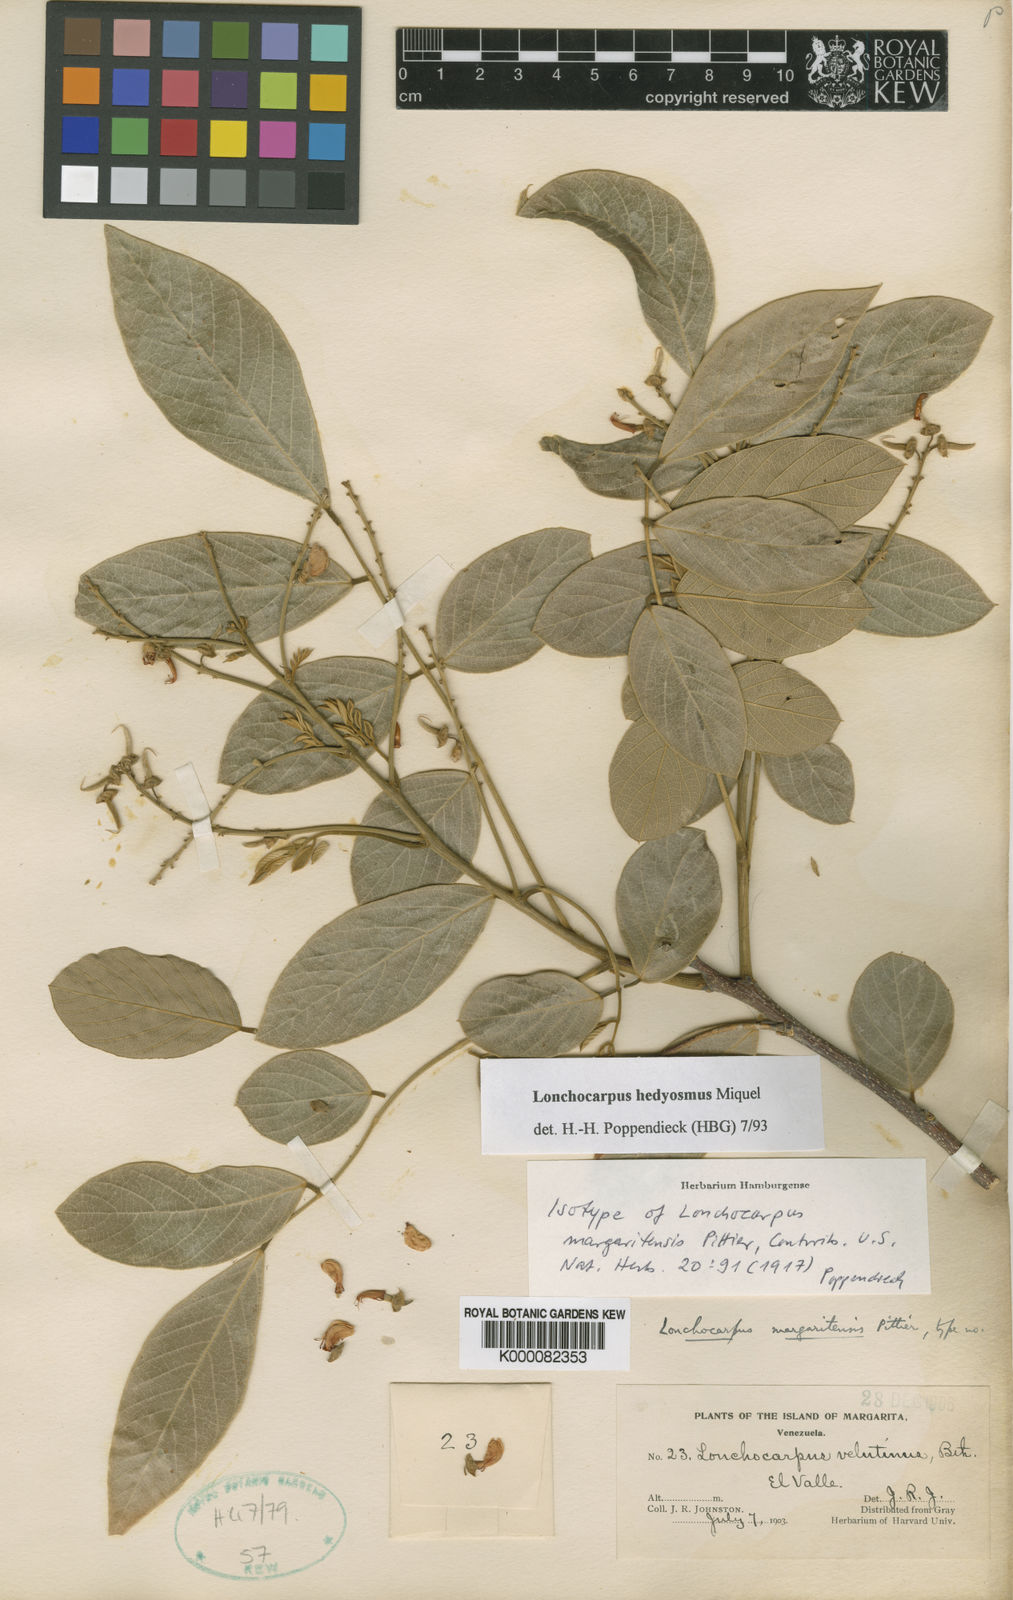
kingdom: Plantae
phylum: Tracheophyta
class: Magnoliopsida
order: Fabales
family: Fabaceae
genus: Lonchocarpus
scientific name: Lonchocarpus hedyosmus
